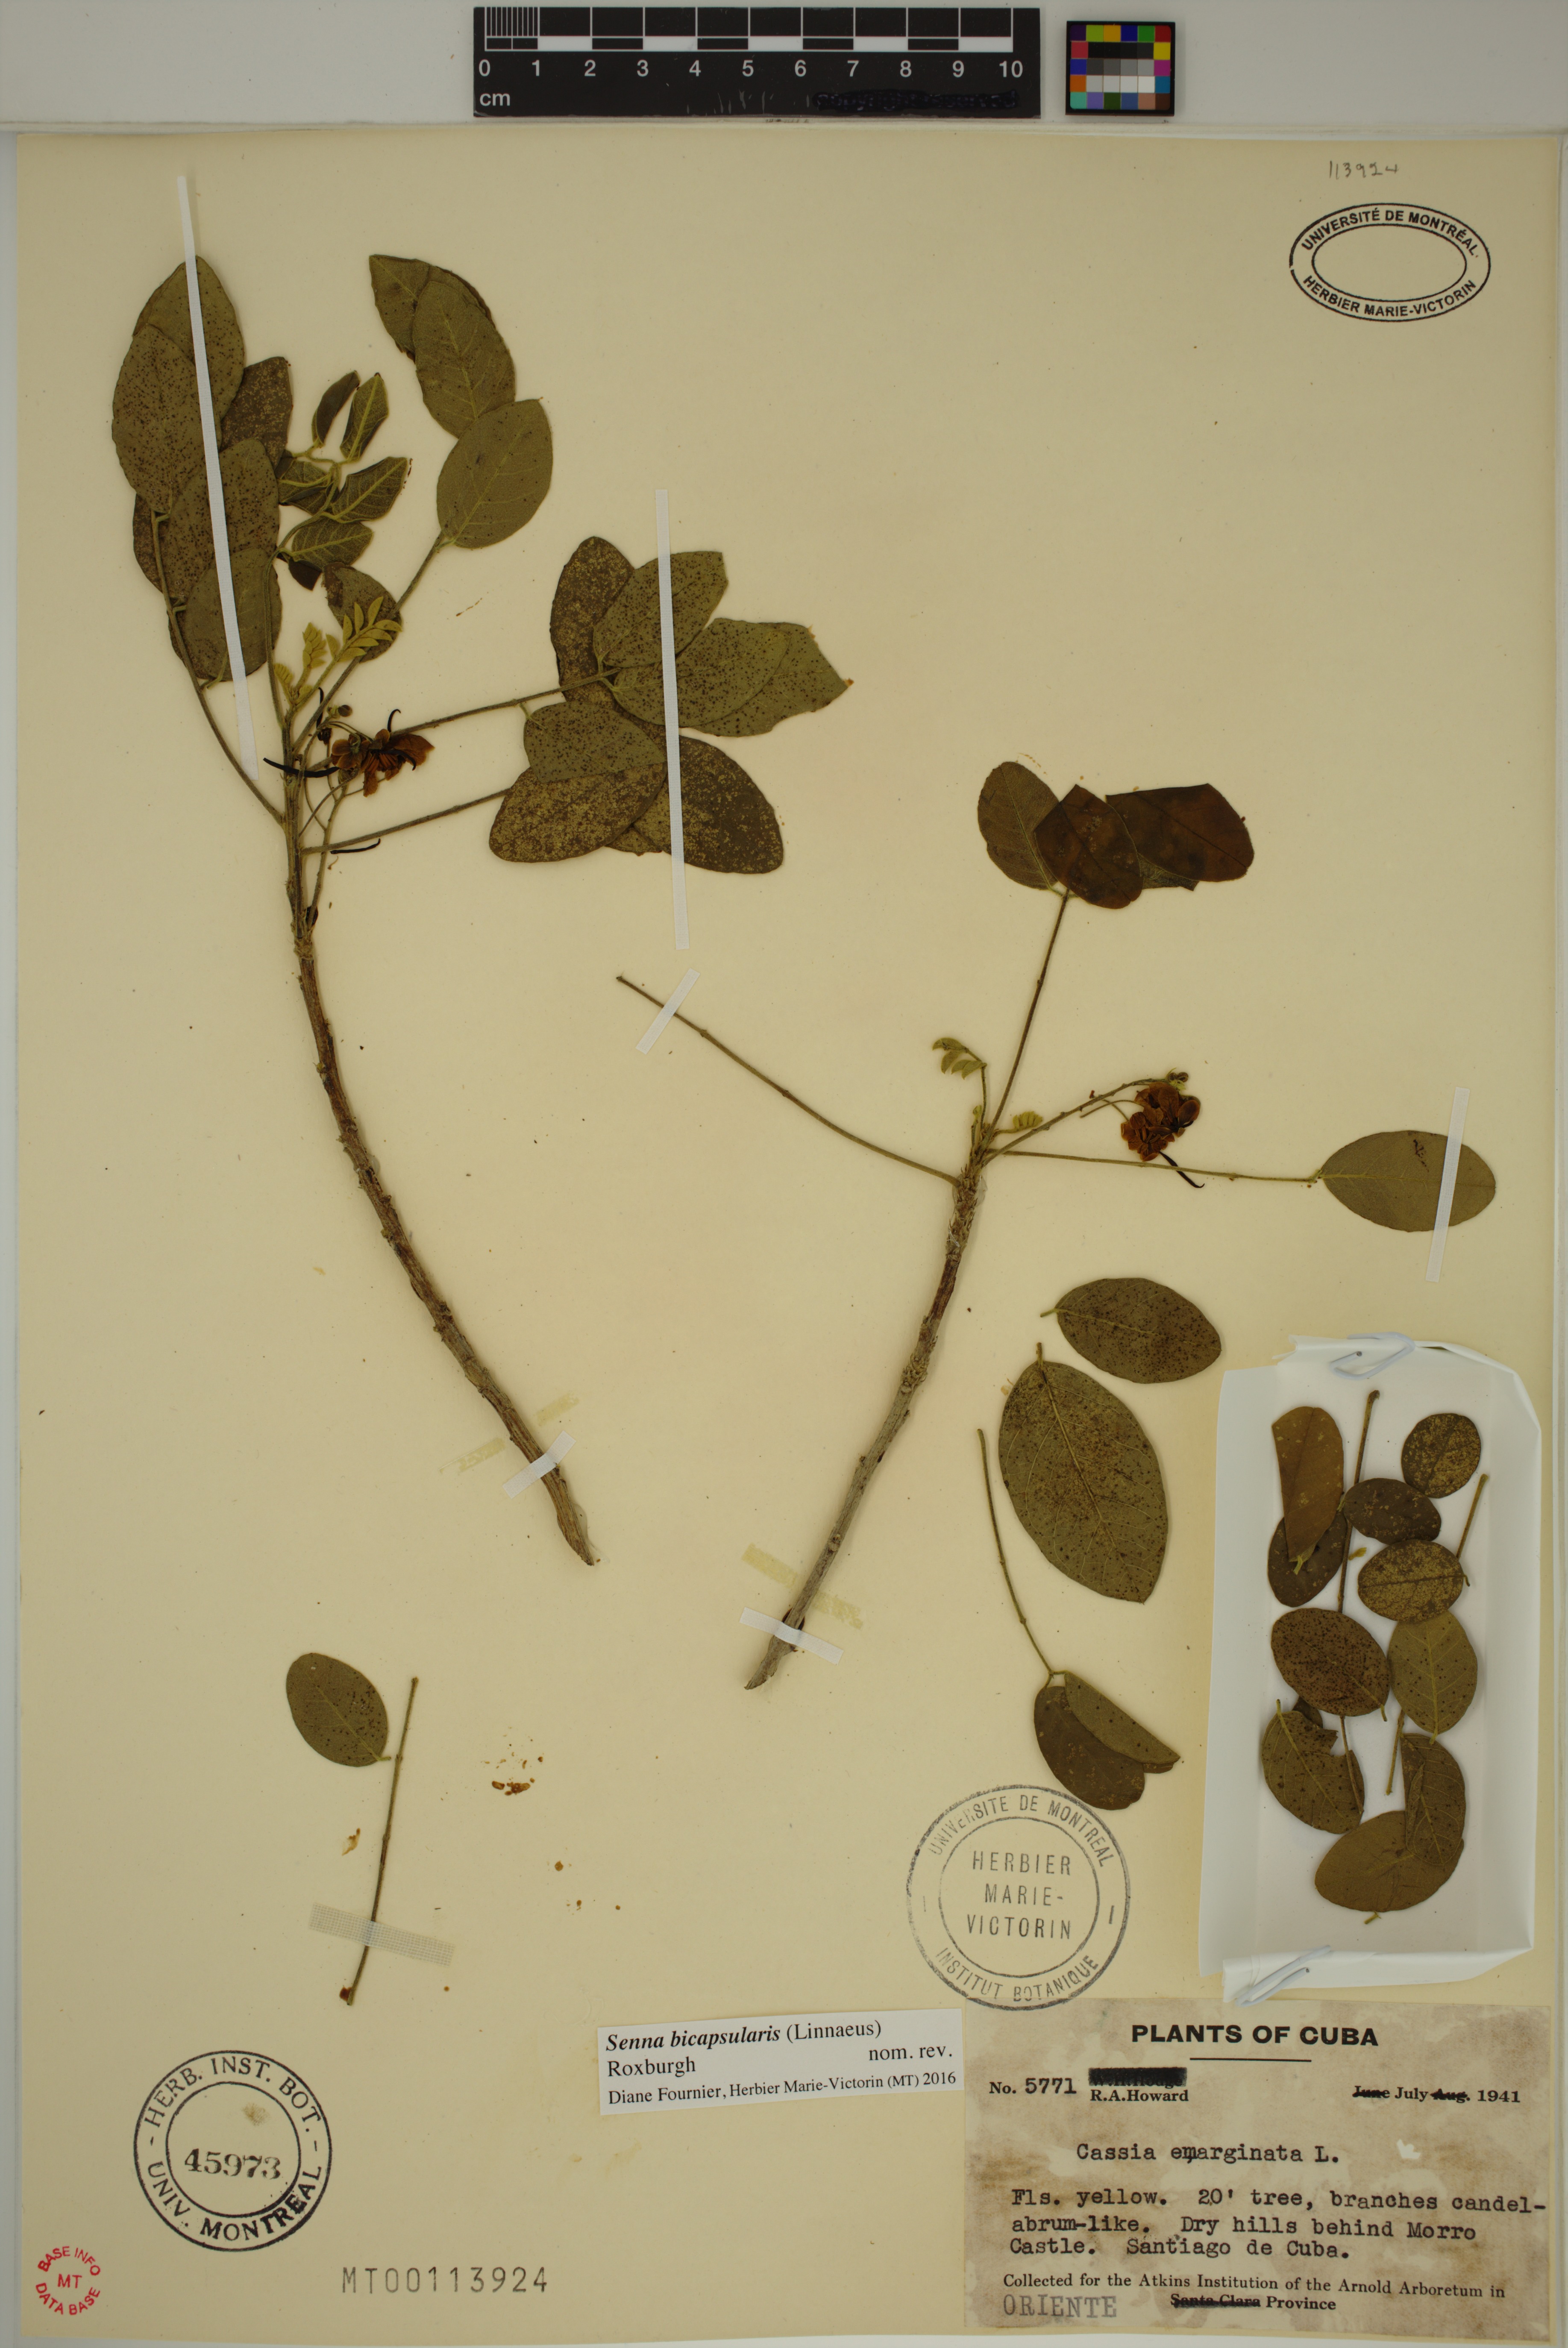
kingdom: Plantae
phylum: Tracheophyta
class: Magnoliopsida
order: Fabales
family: Fabaceae
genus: Senna
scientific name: Senna bicapsularis
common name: Christmasbush
